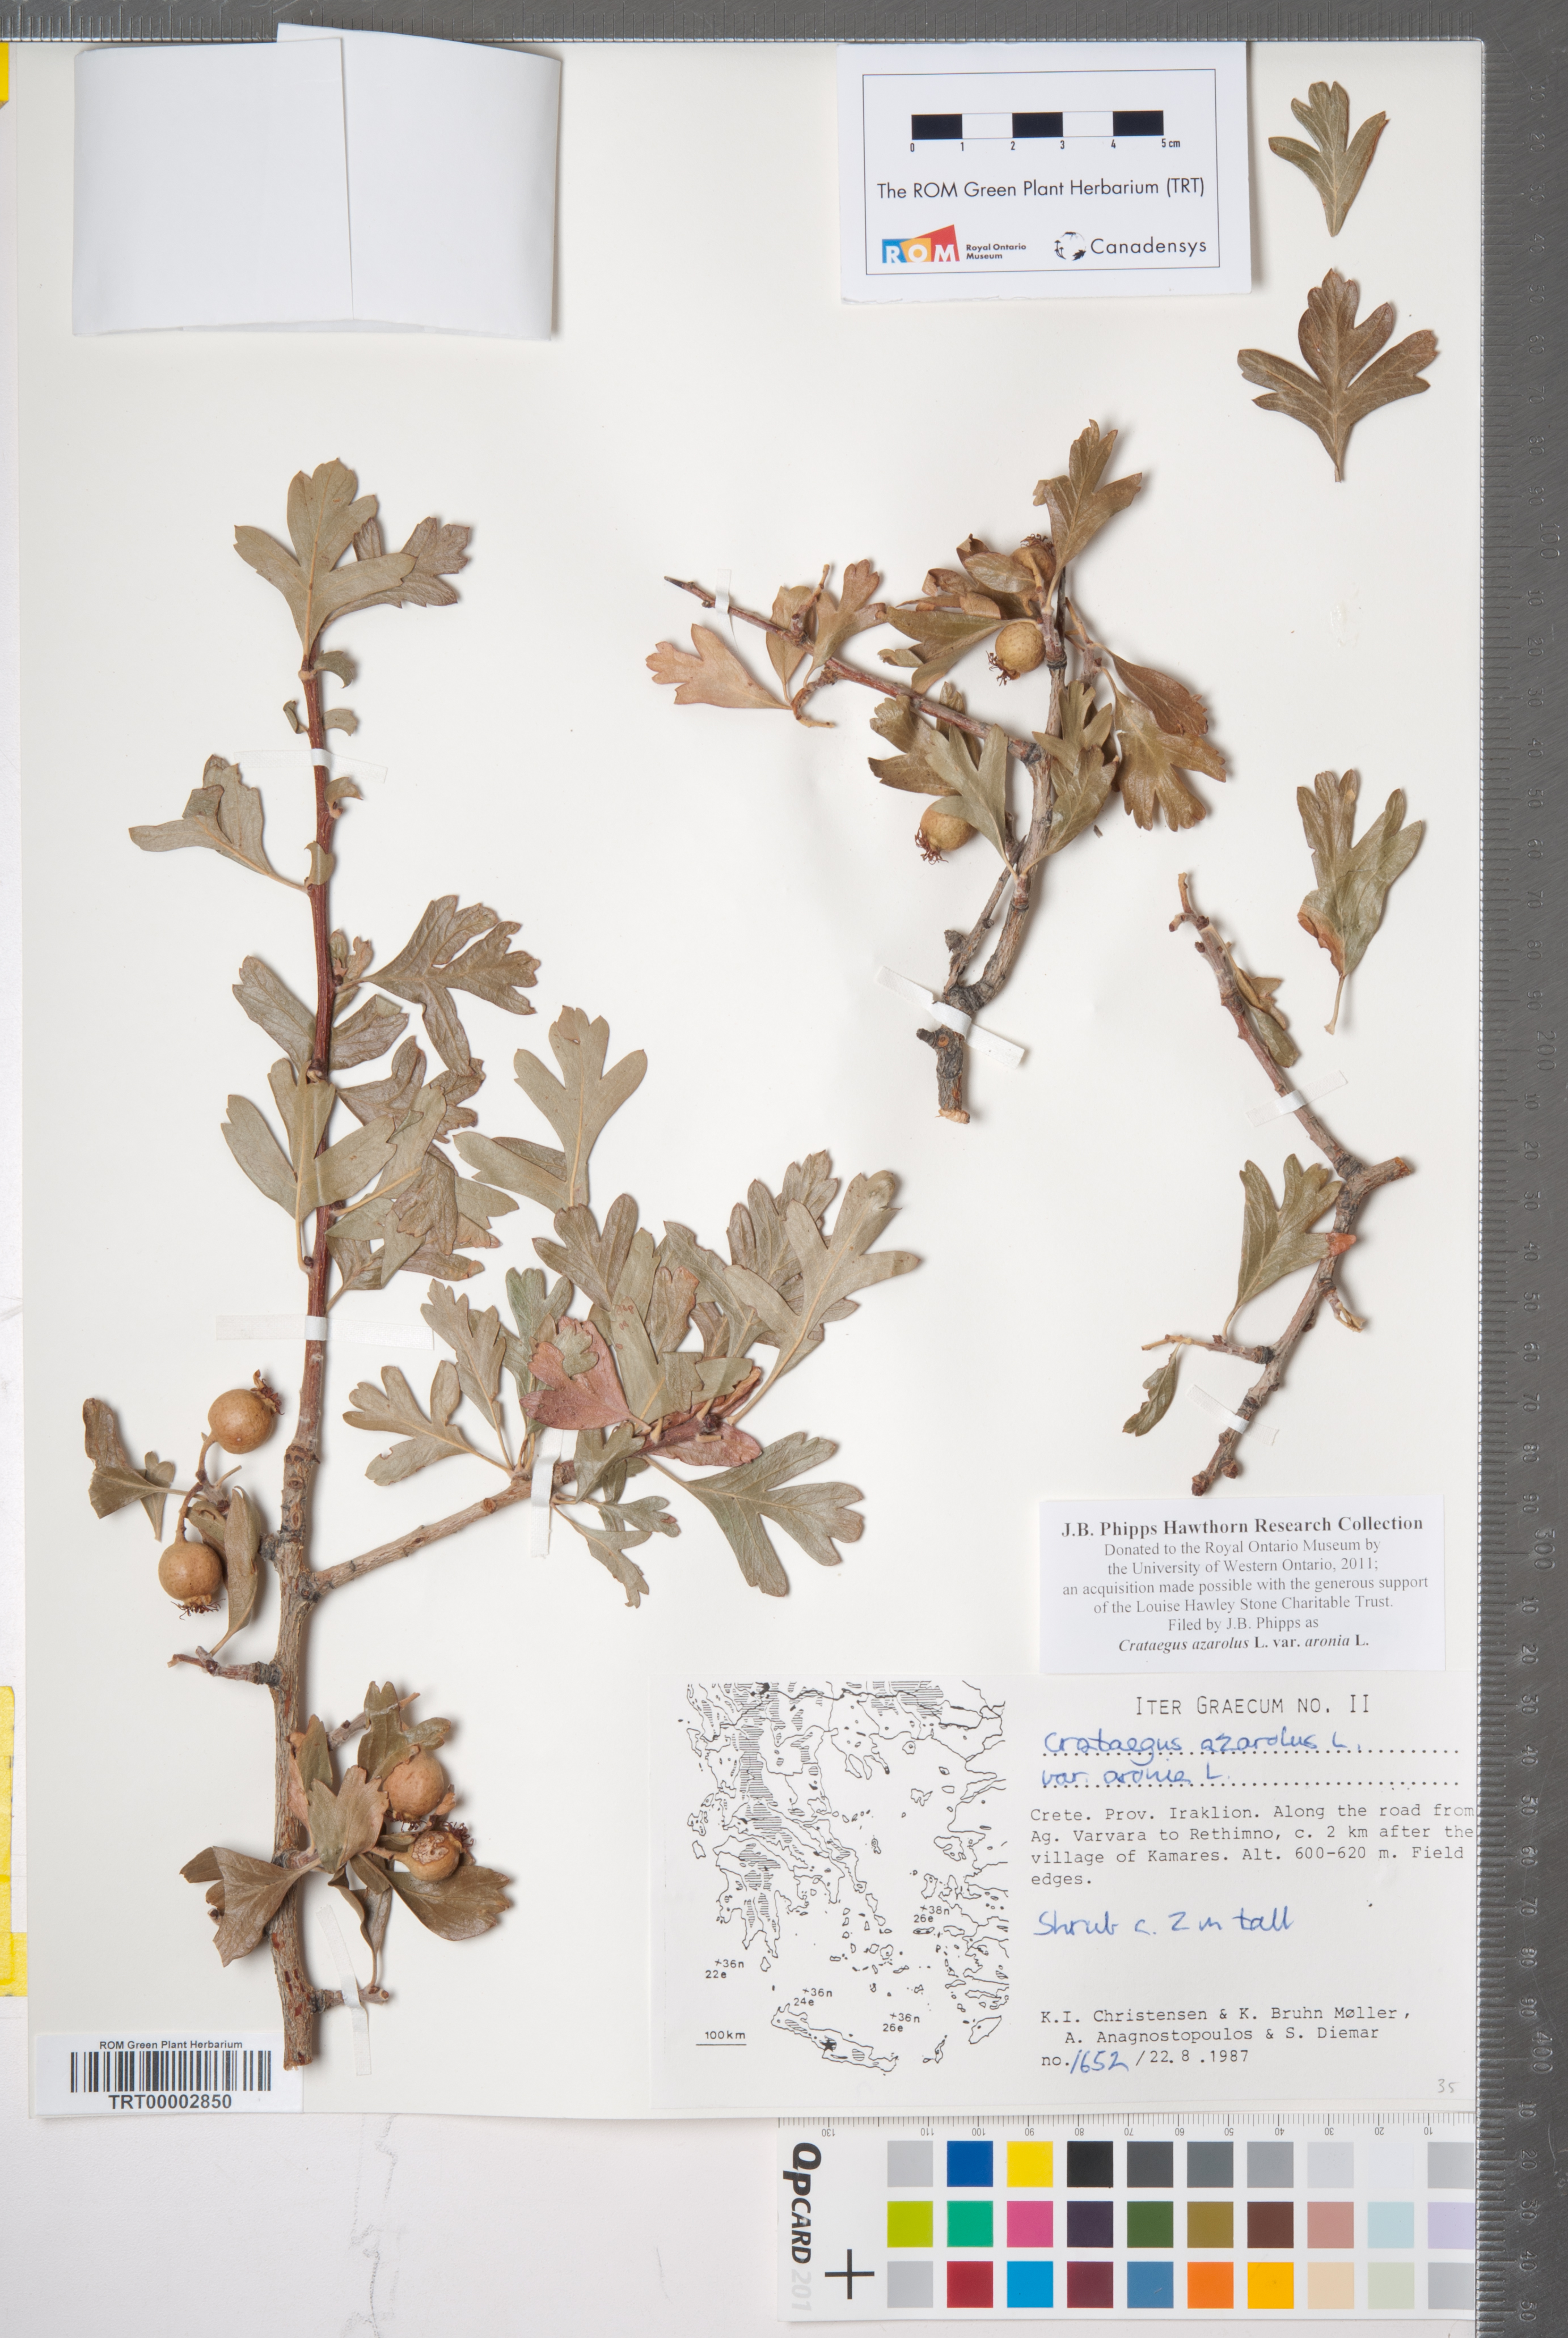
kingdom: Plantae
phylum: Tracheophyta
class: Magnoliopsida
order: Rosales
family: Rosaceae
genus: Crataegus
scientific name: Crataegus azarolus
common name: Azarole
